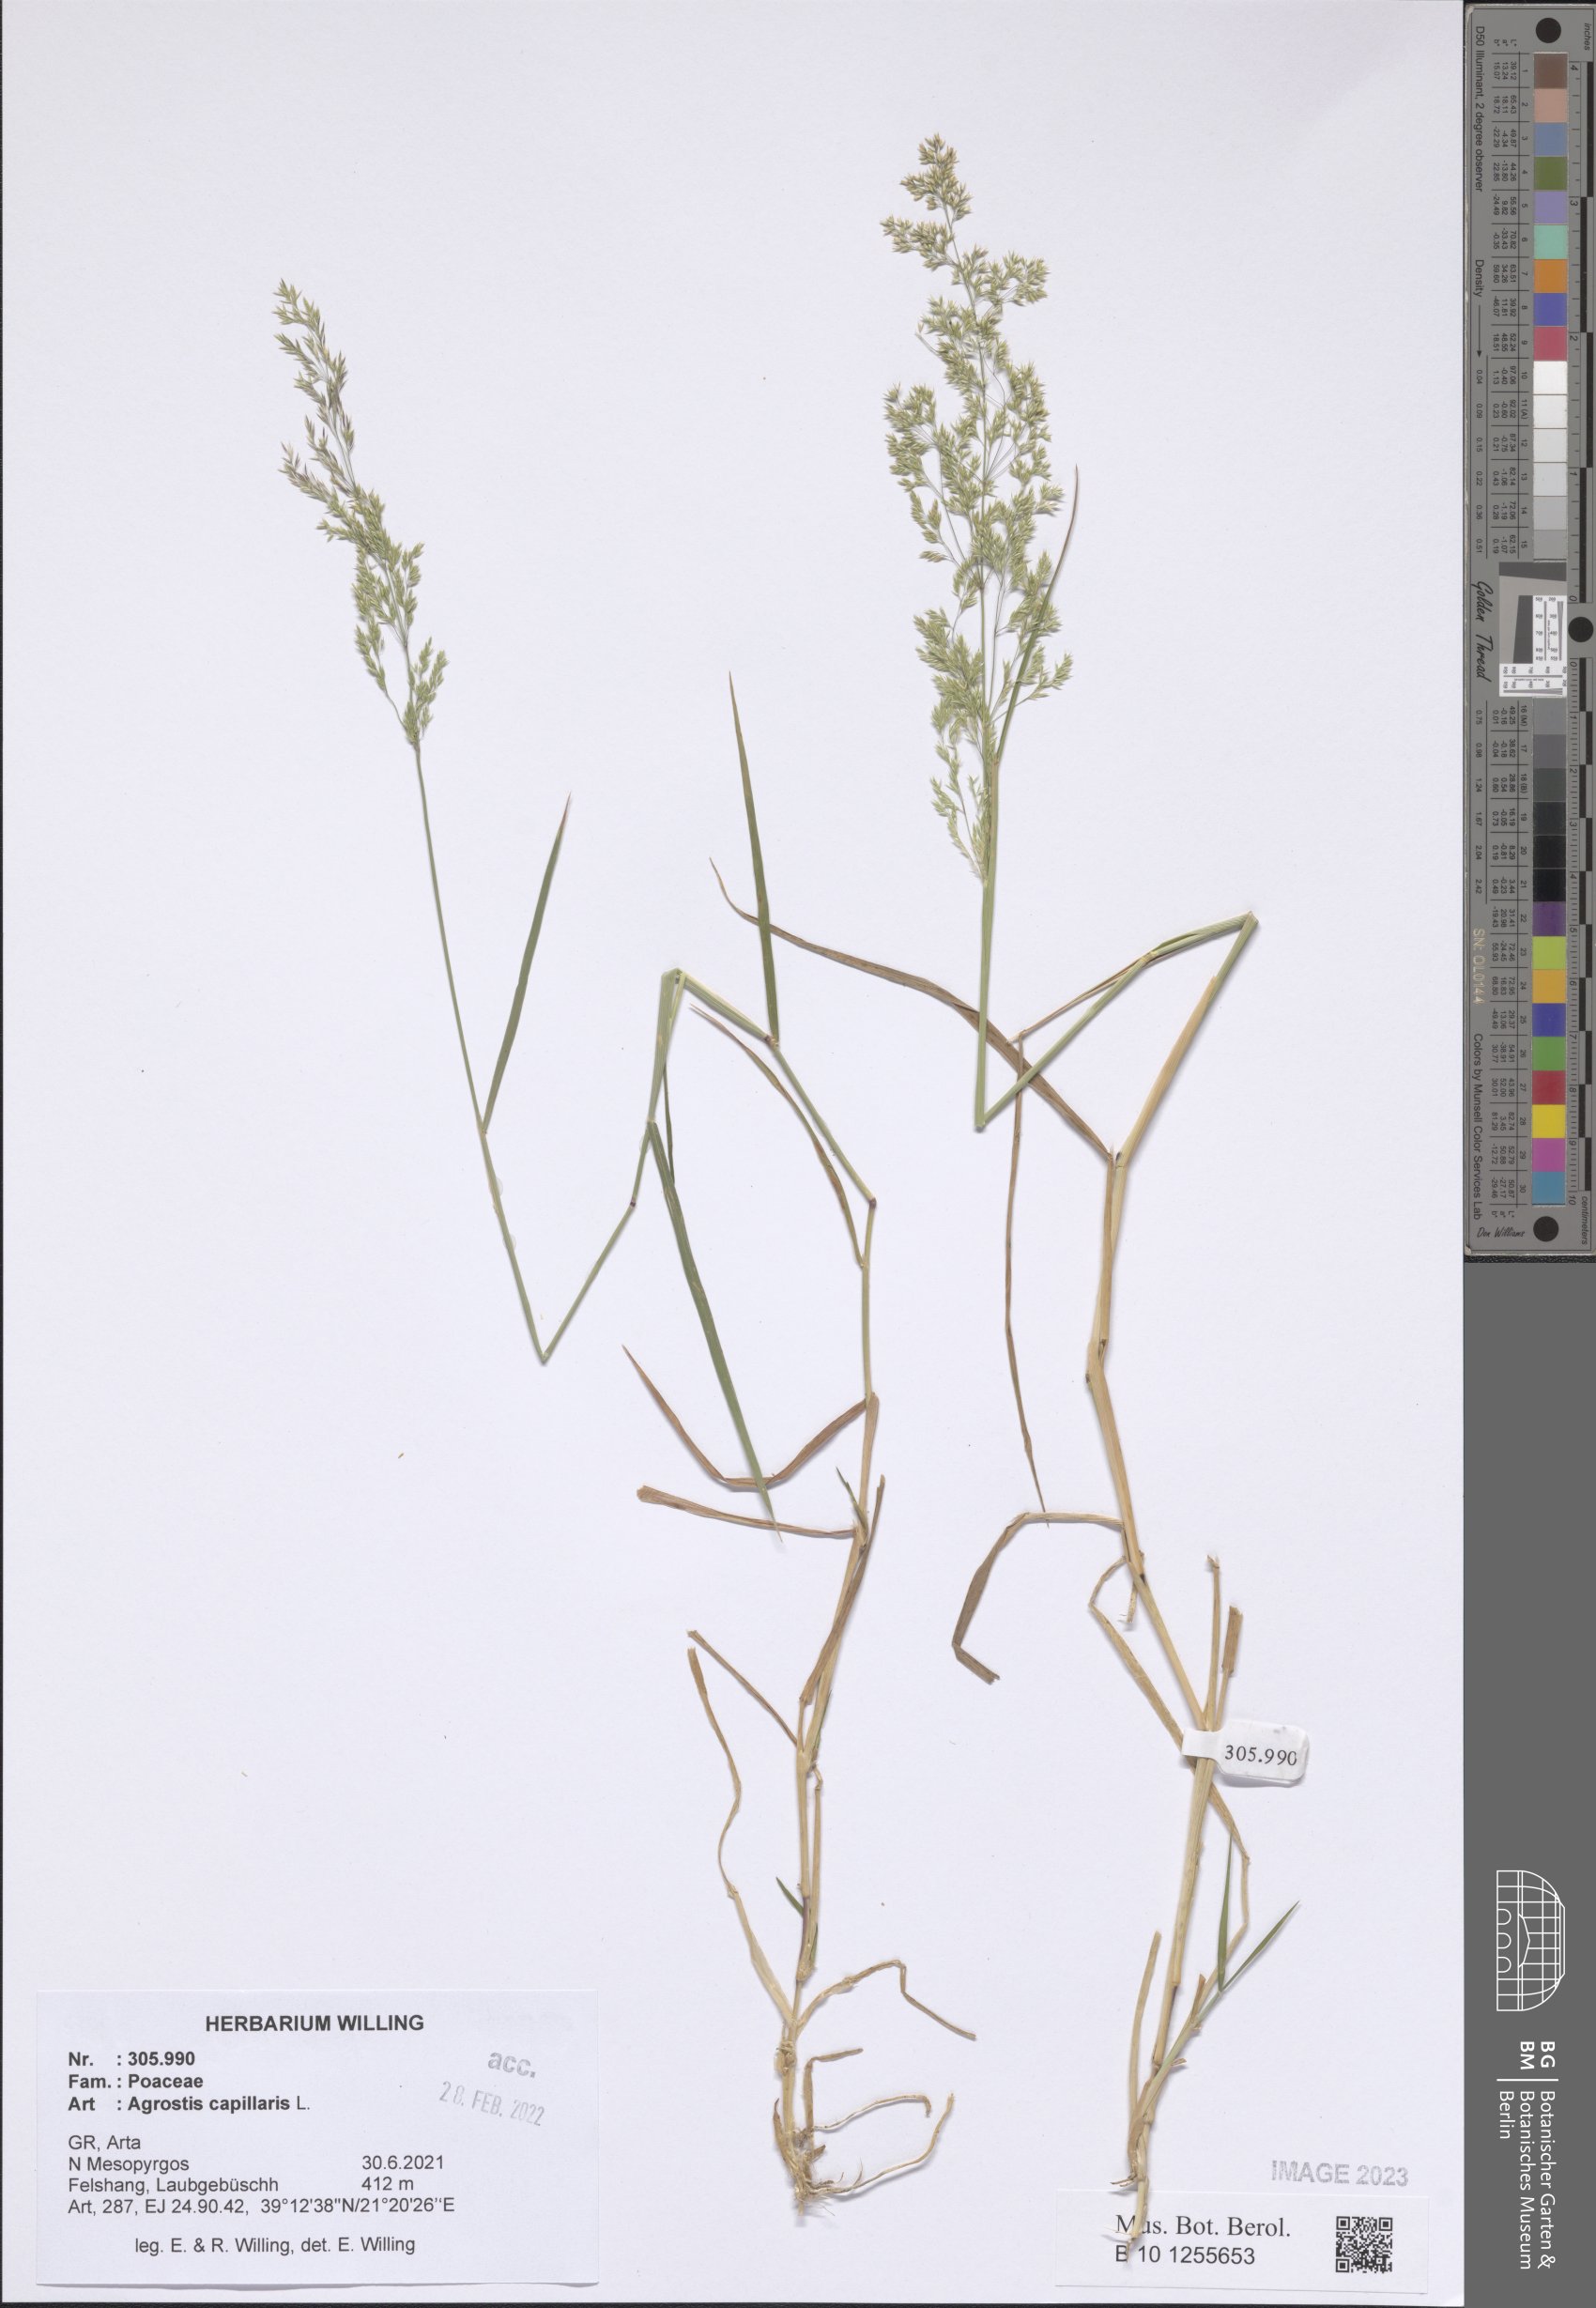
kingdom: Plantae
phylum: Tracheophyta
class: Liliopsida
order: Poales
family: Poaceae
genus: Agrostis
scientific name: Agrostis capillaris
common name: Colonial bentgrass
